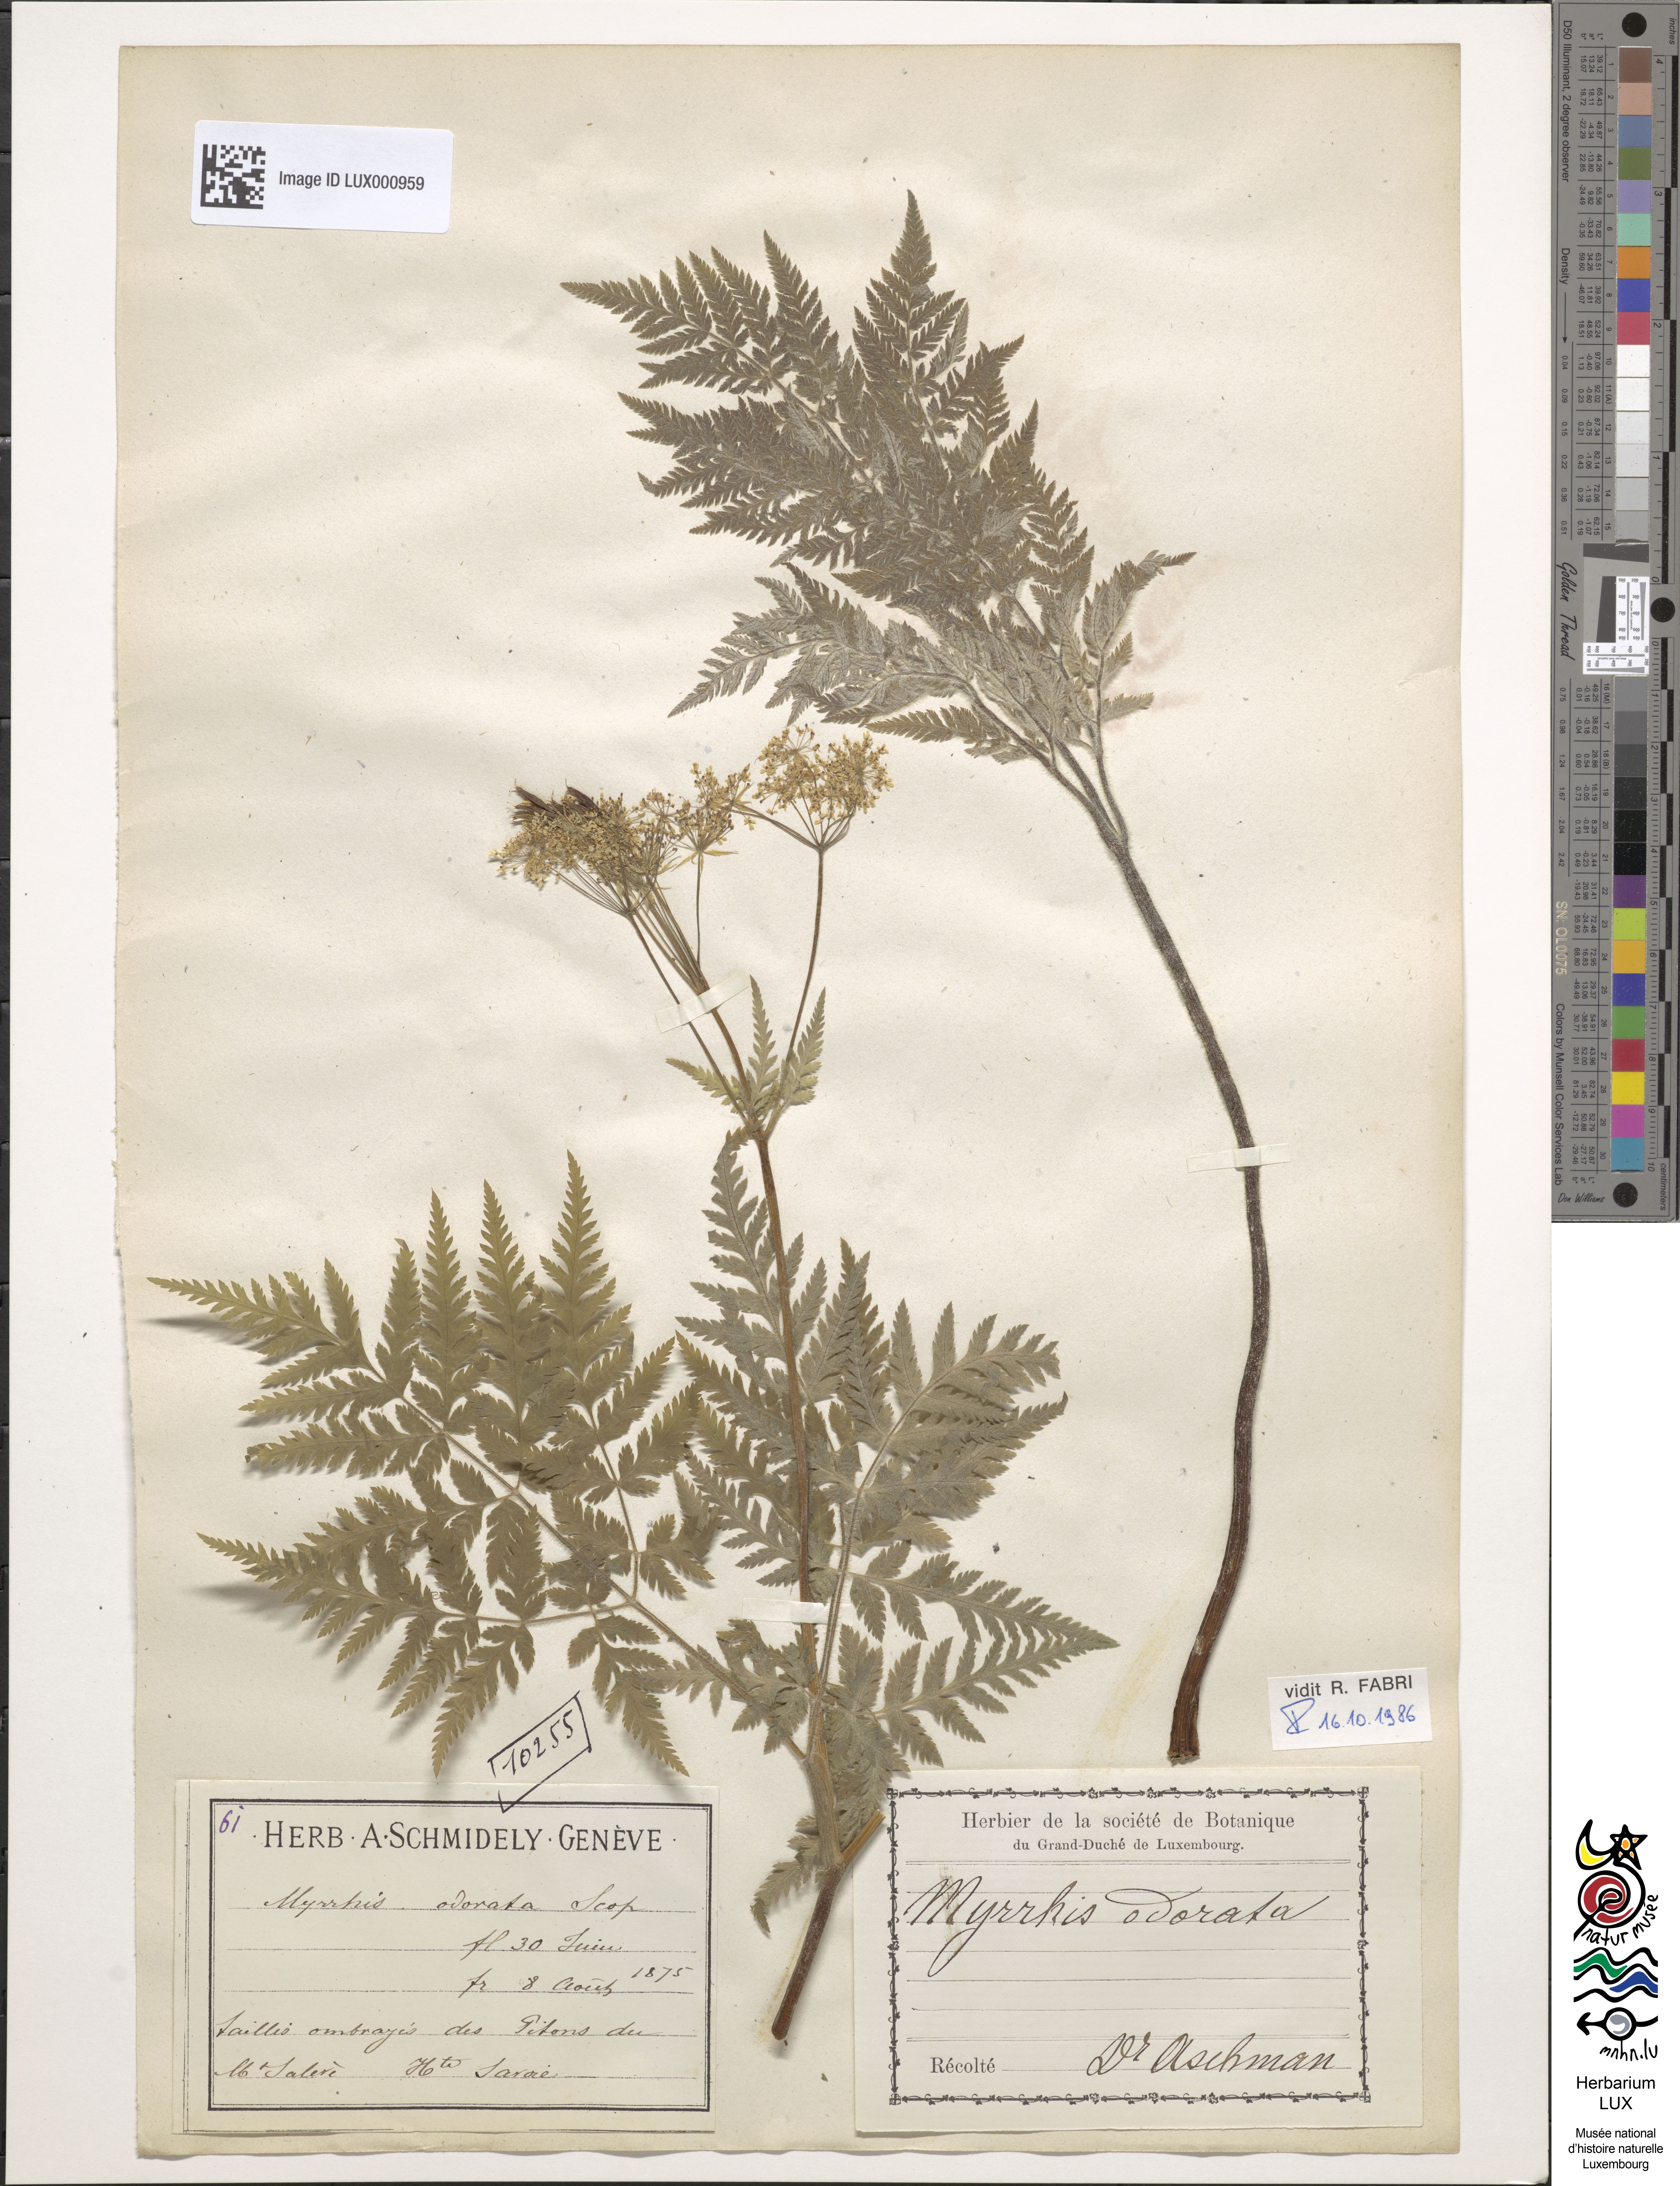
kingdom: Plantae
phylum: Tracheophyta
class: Magnoliopsida
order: Apiales
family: Apiaceae
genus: Myrrhis
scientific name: Myrrhis odorata
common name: Sweet cicely
